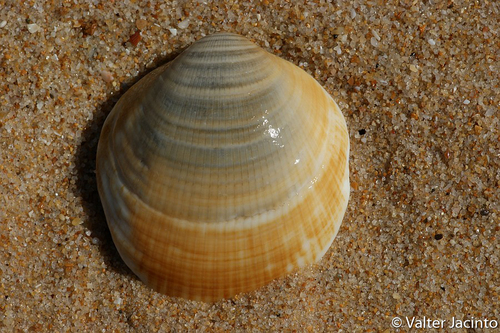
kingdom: Animalia
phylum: Mollusca
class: Bivalvia
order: Arcida
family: Glycymerididae
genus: Glycymeris
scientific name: Glycymeris pilosa
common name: Hairy bittersweet
